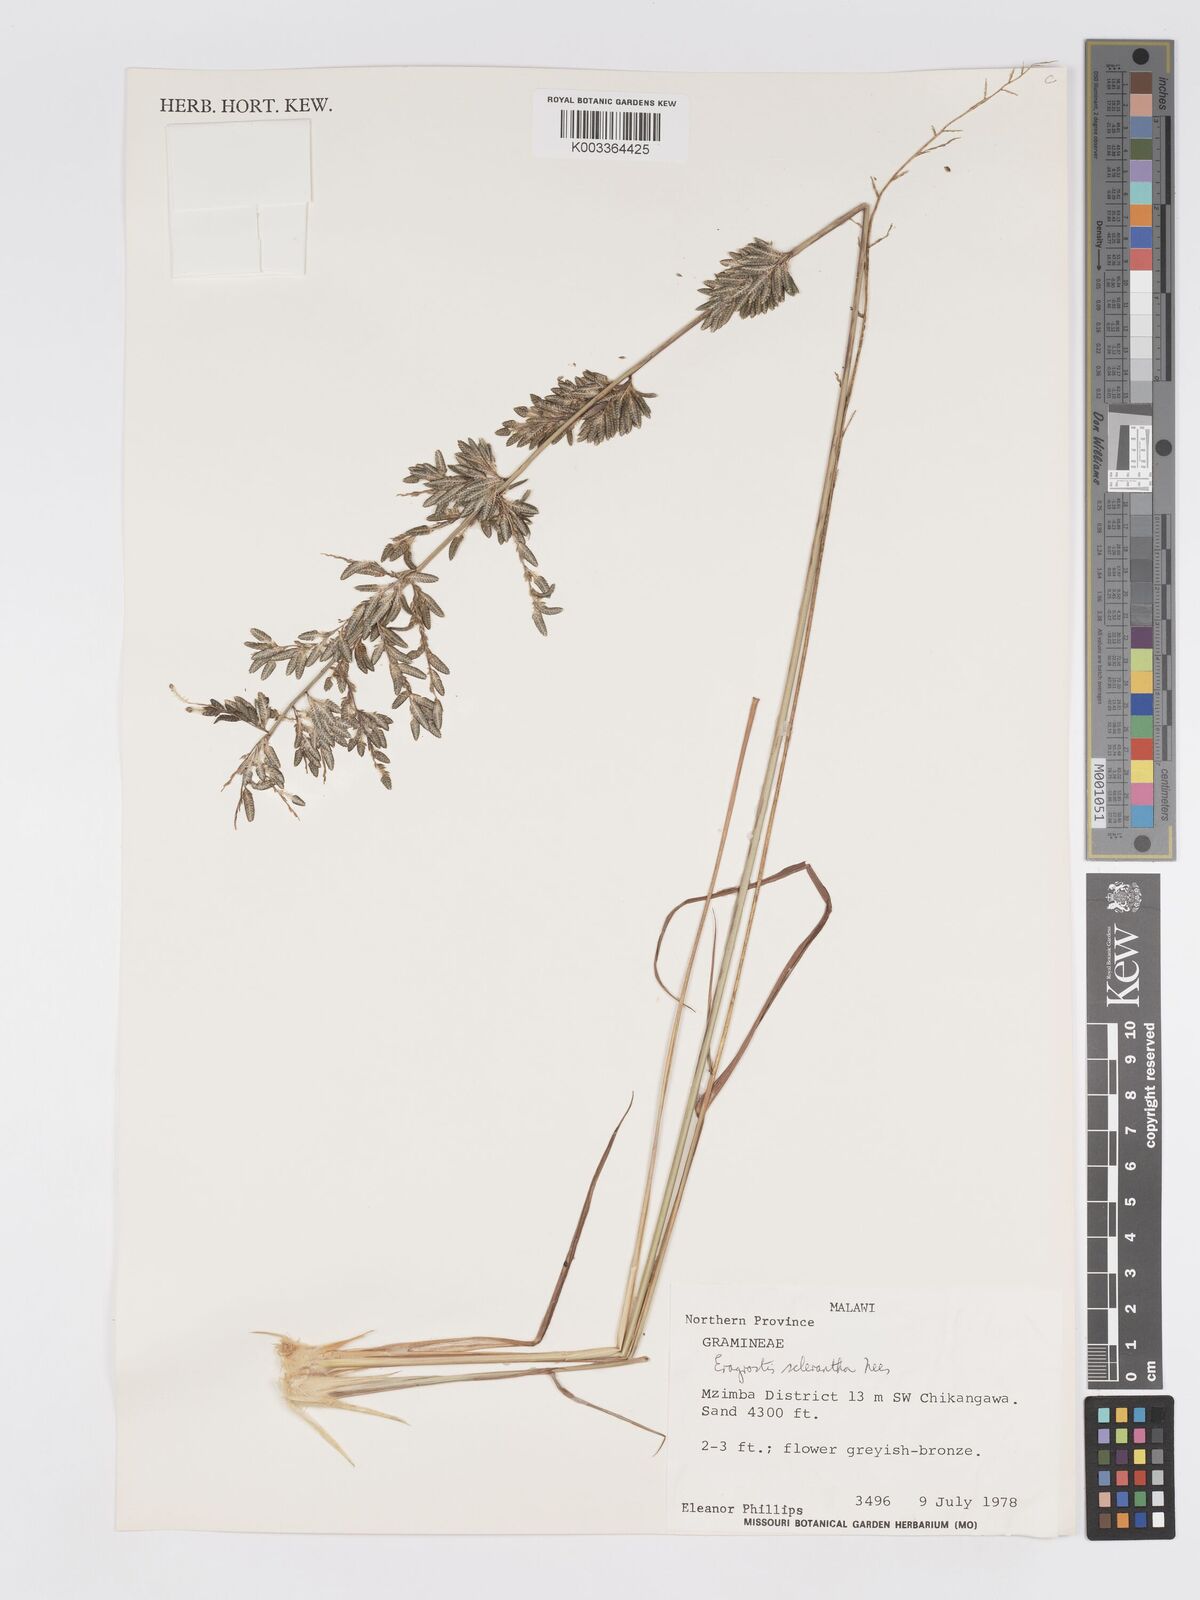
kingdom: Plantae
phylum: Tracheophyta
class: Liliopsida
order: Poales
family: Poaceae
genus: Eragrostis
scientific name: Eragrostis sclerantha
